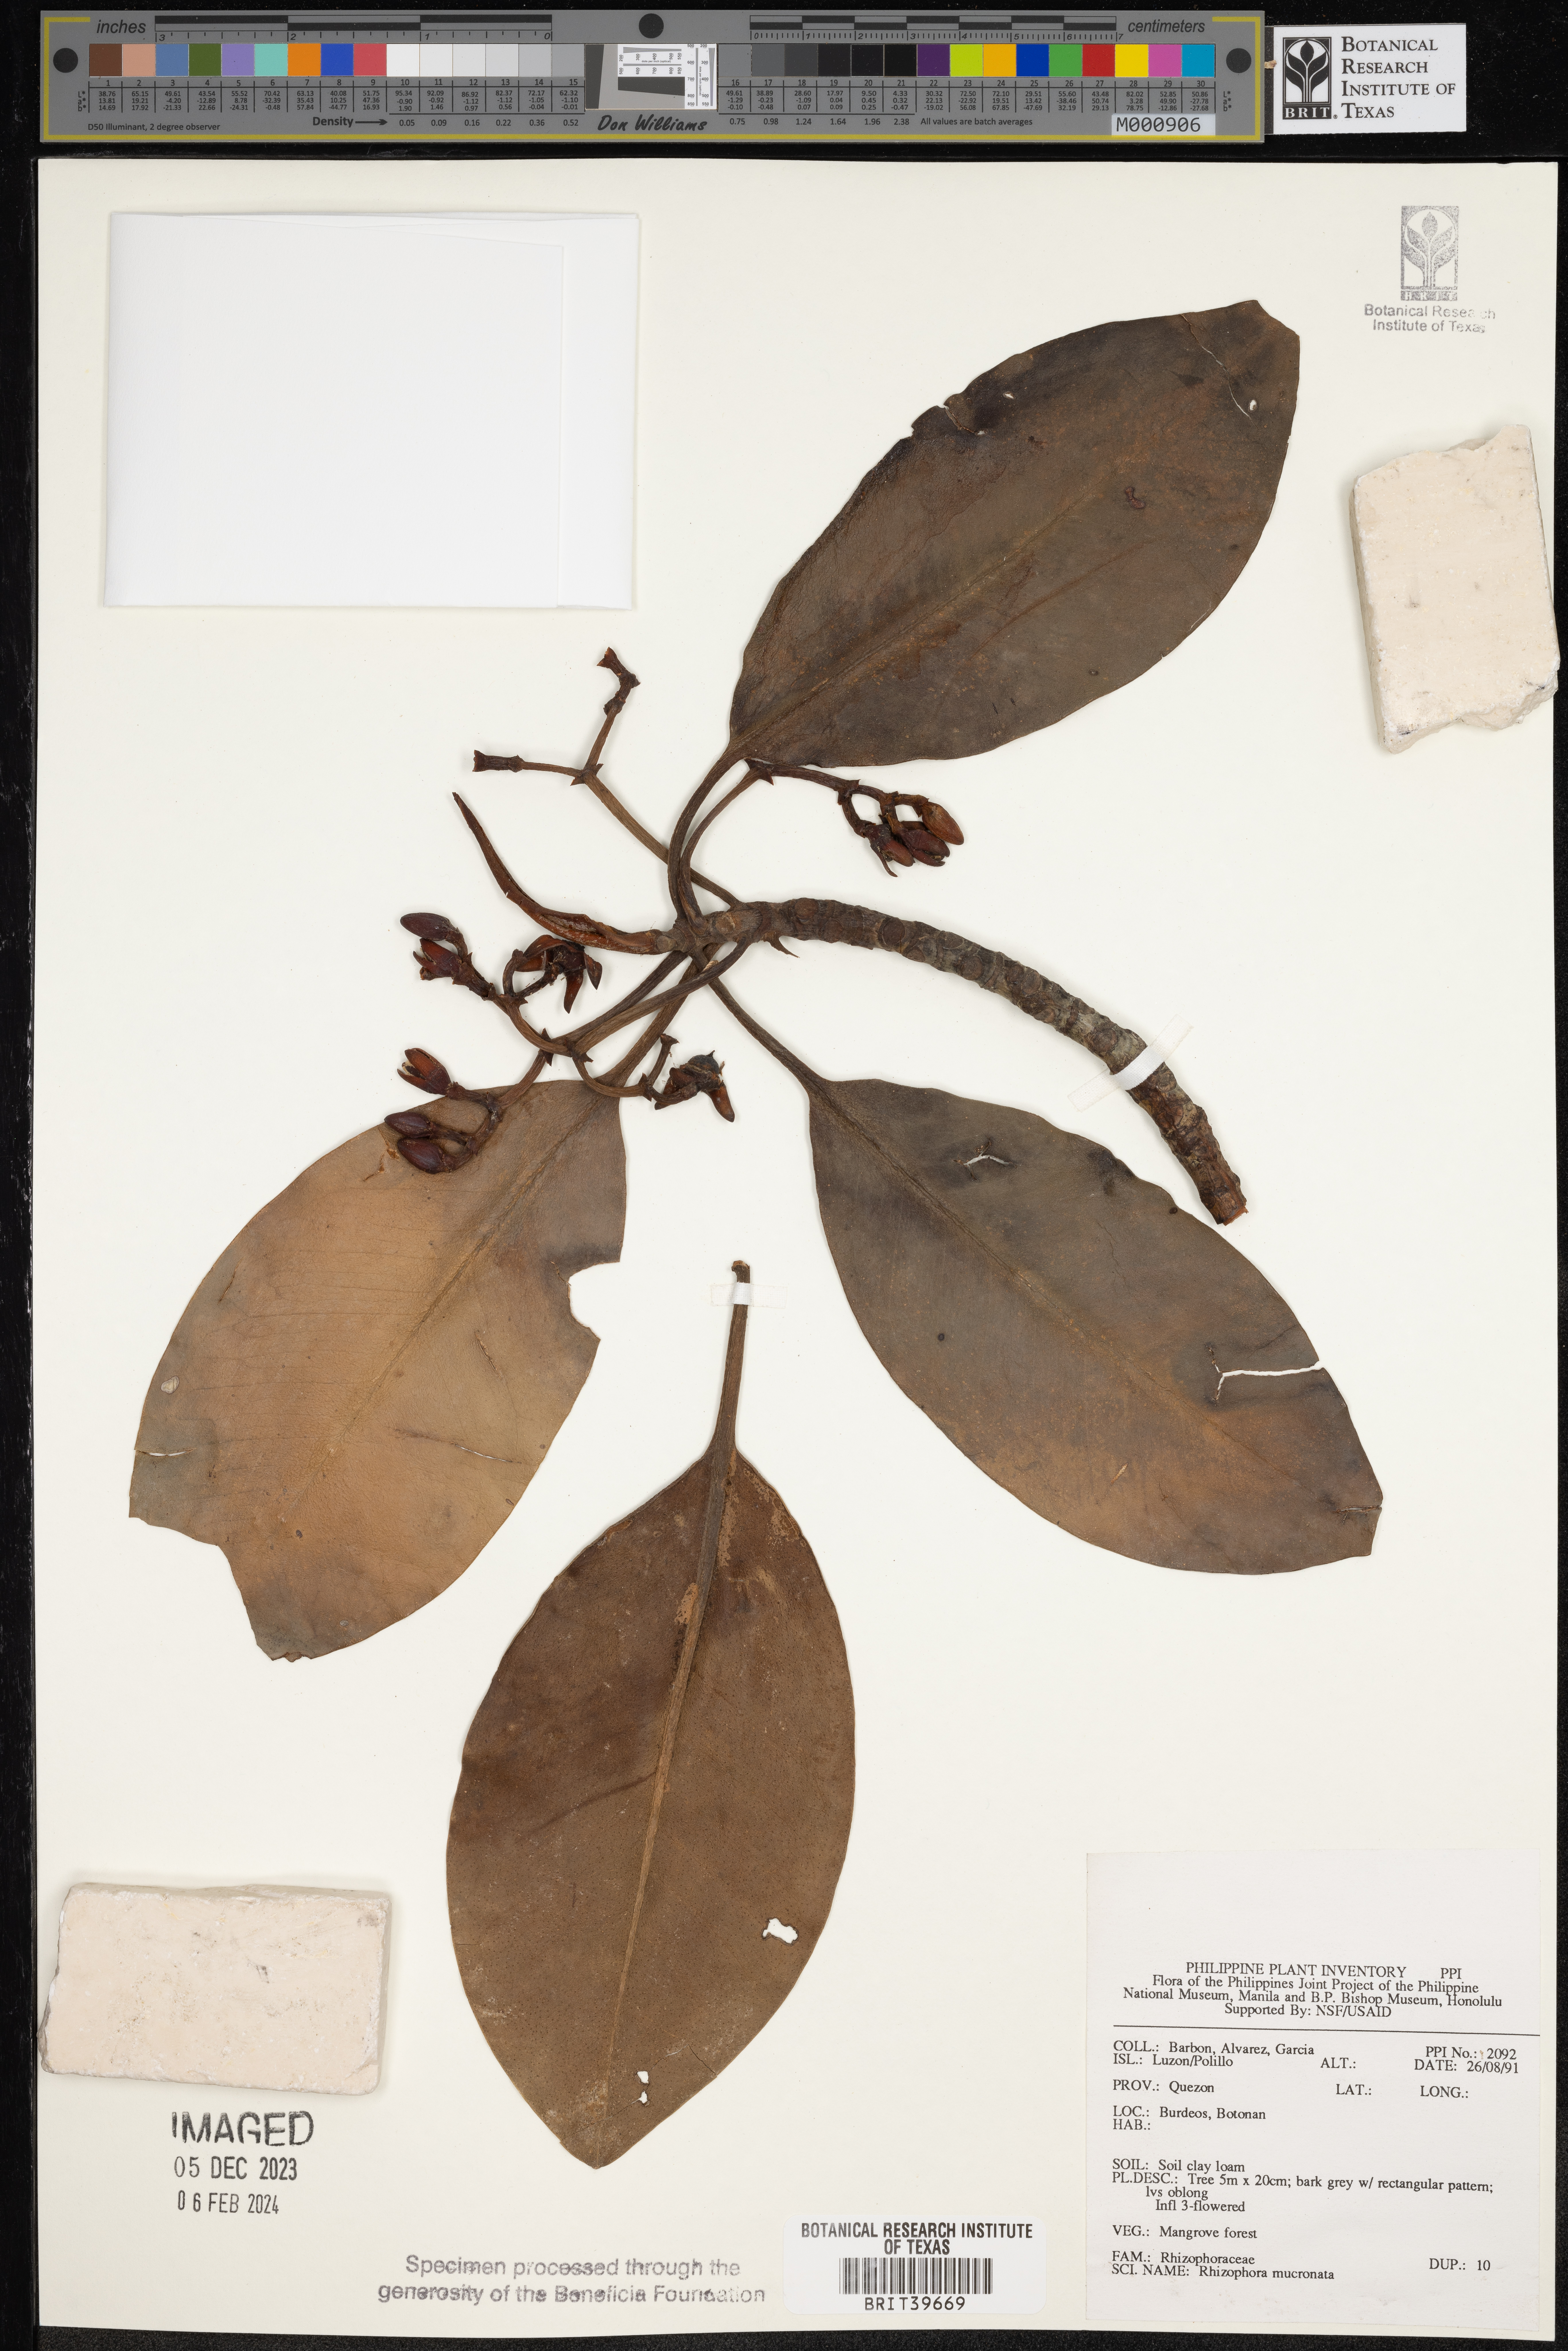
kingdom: Plantae
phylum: Tracheophyta
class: Magnoliopsida
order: Malpighiales
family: Rhizophoraceae
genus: Rhizophora
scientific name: Rhizophora mucronata
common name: Loop-root mangrove
